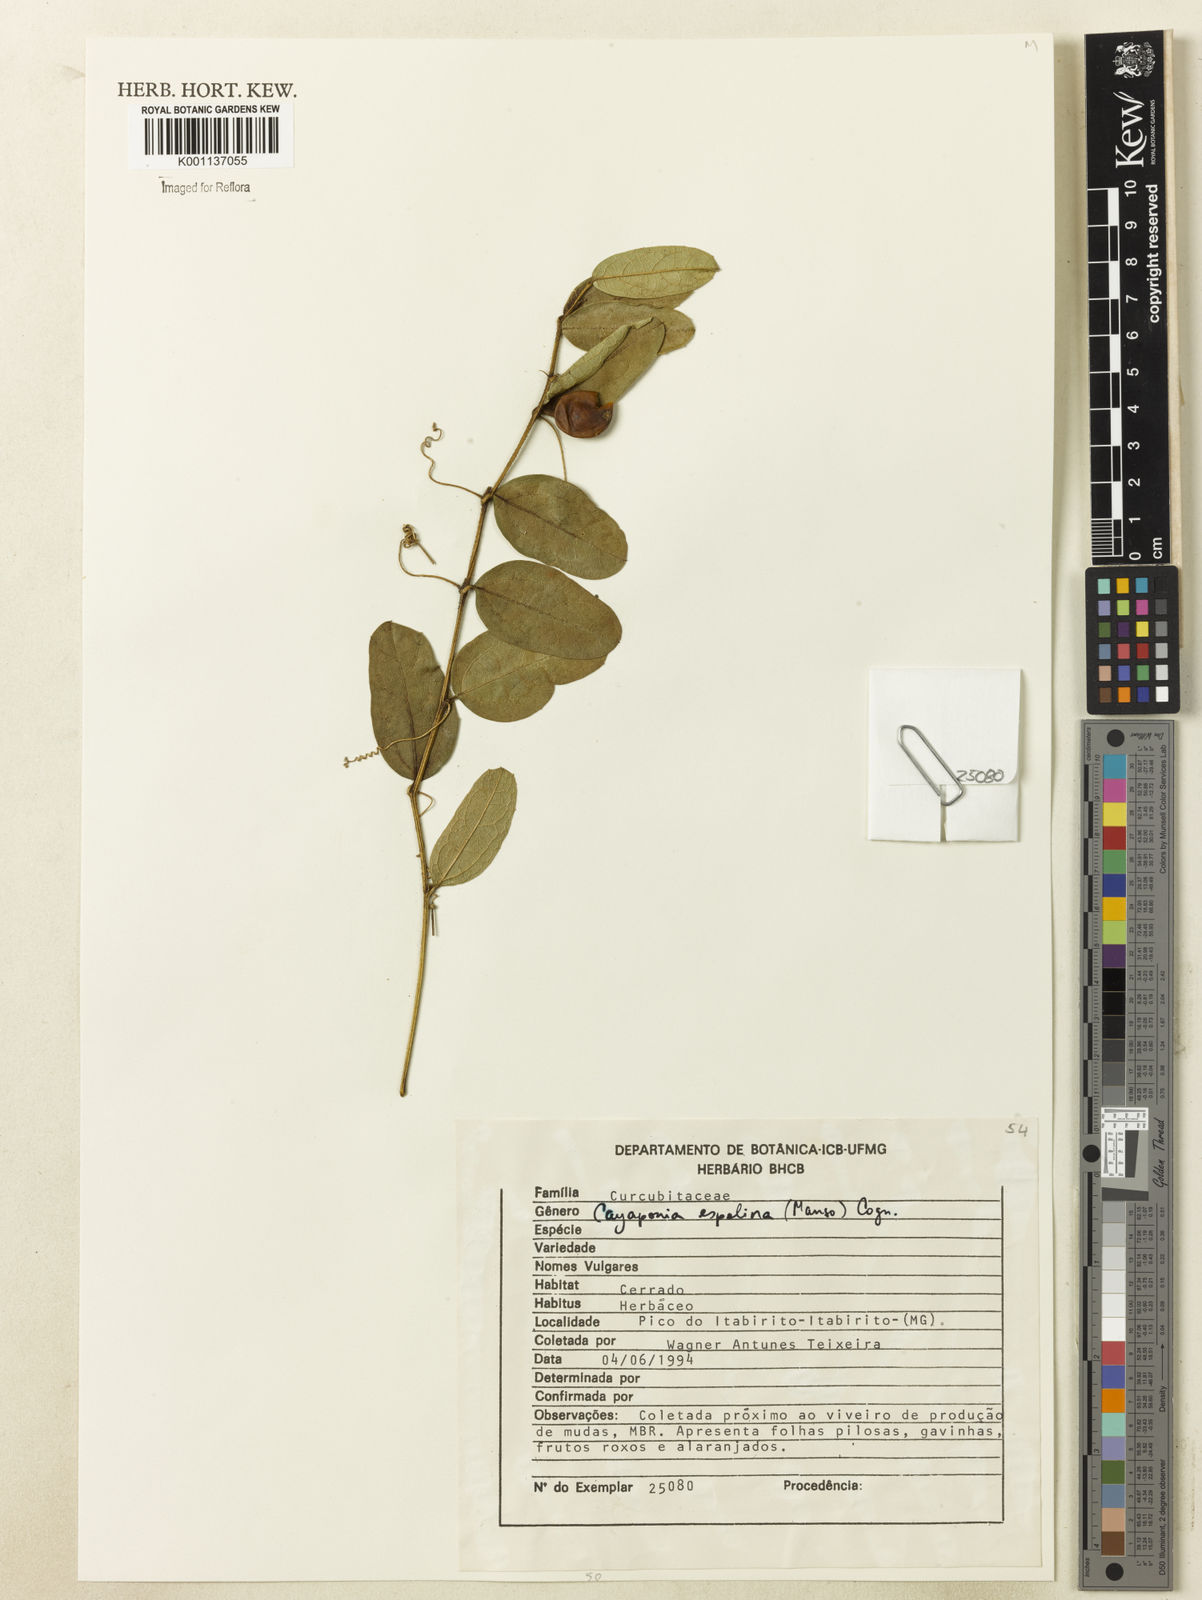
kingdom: Plantae
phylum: Tracheophyta
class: Magnoliopsida
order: Cucurbitales
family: Cucurbitaceae
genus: Cayaponia
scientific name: Cayaponia espelina
